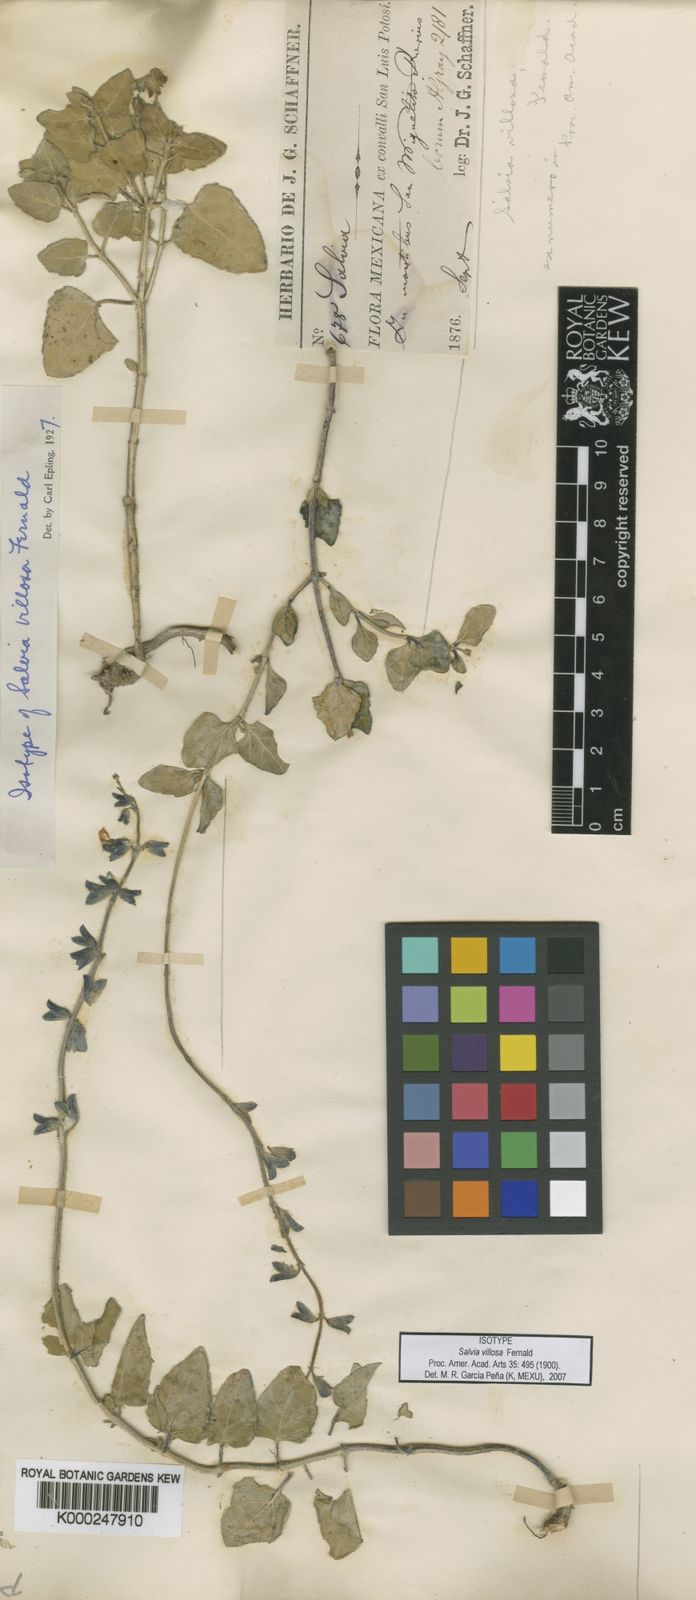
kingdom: Plantae
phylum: Tracheophyta
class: Magnoliopsida
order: Lamiales
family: Lamiaceae
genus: Salvia
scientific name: Salvia villosa
